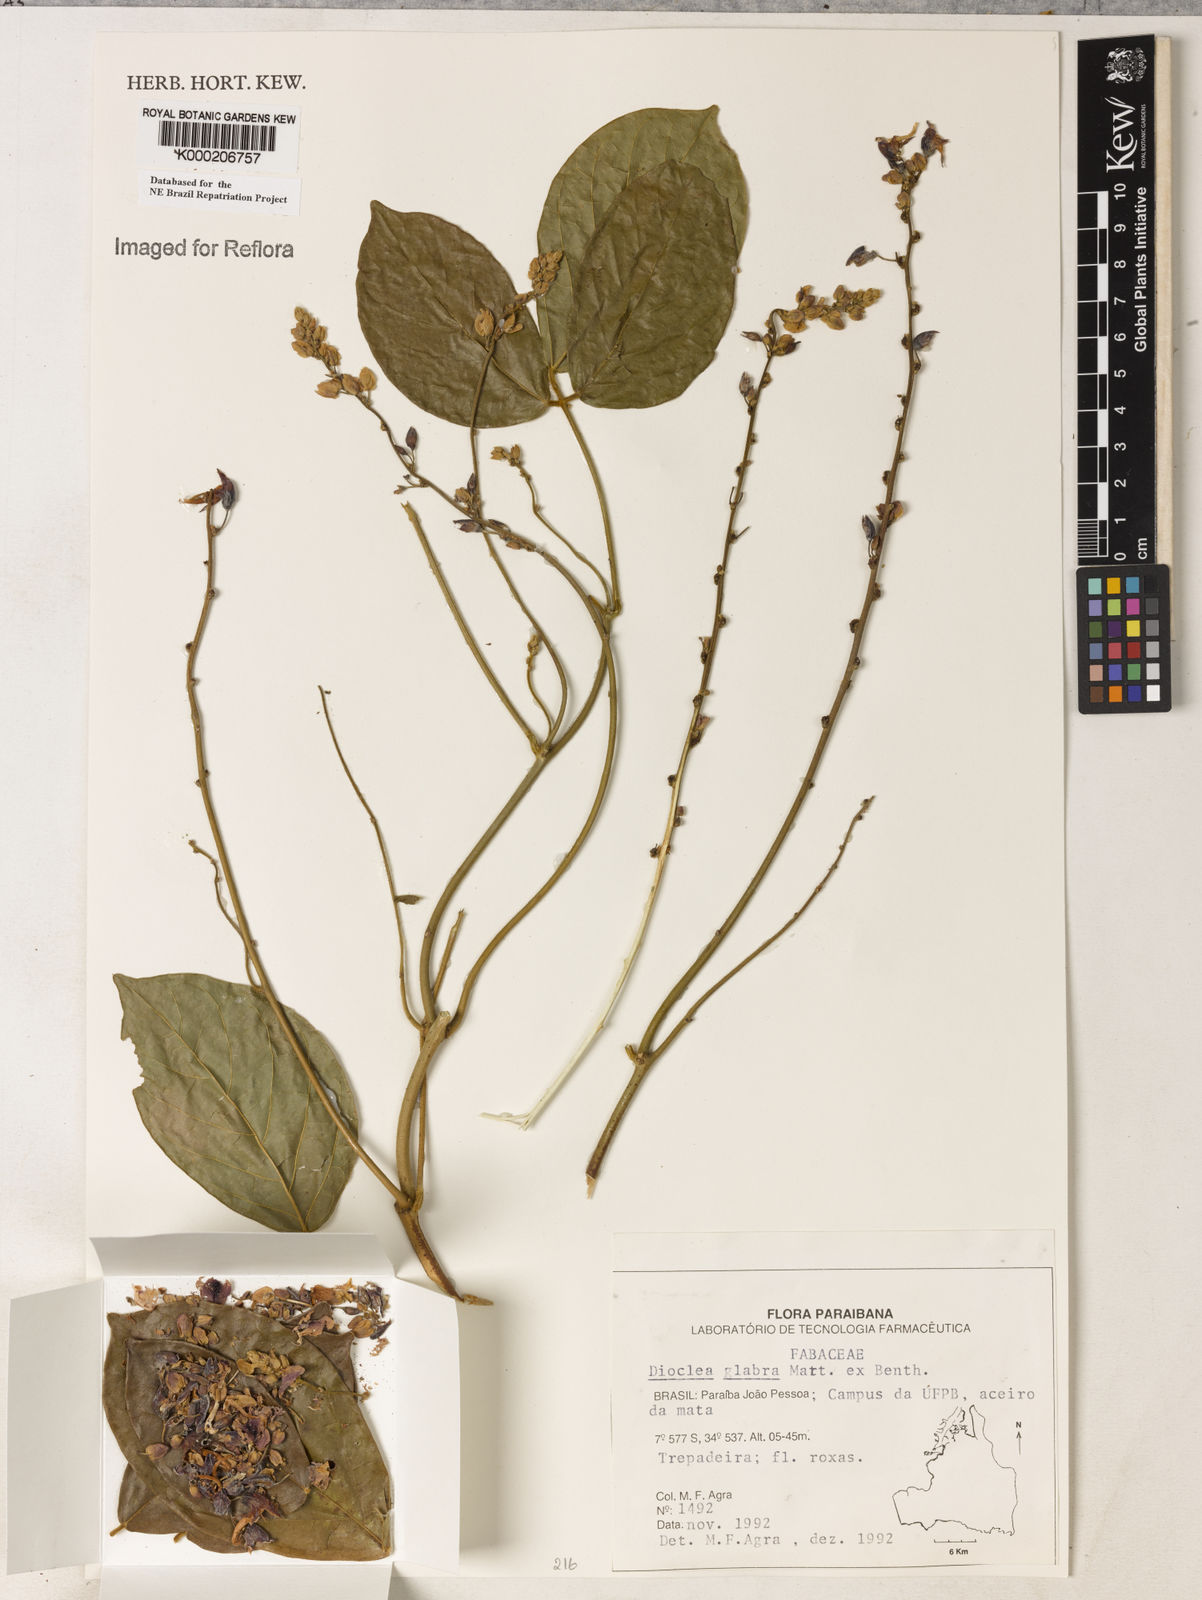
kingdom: Plantae
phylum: Tracheophyta
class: Magnoliopsida
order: Fabales
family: Fabaceae
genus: Macropsychanthus
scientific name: Macropsychanthus glaber
